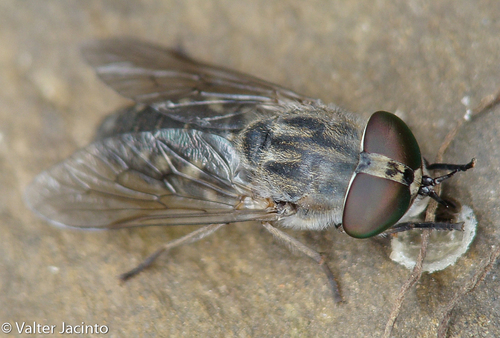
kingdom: Animalia
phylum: Arthropoda
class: Insecta
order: Diptera
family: Tabanidae
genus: Tabanus
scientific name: Tabanus unifasciatus
